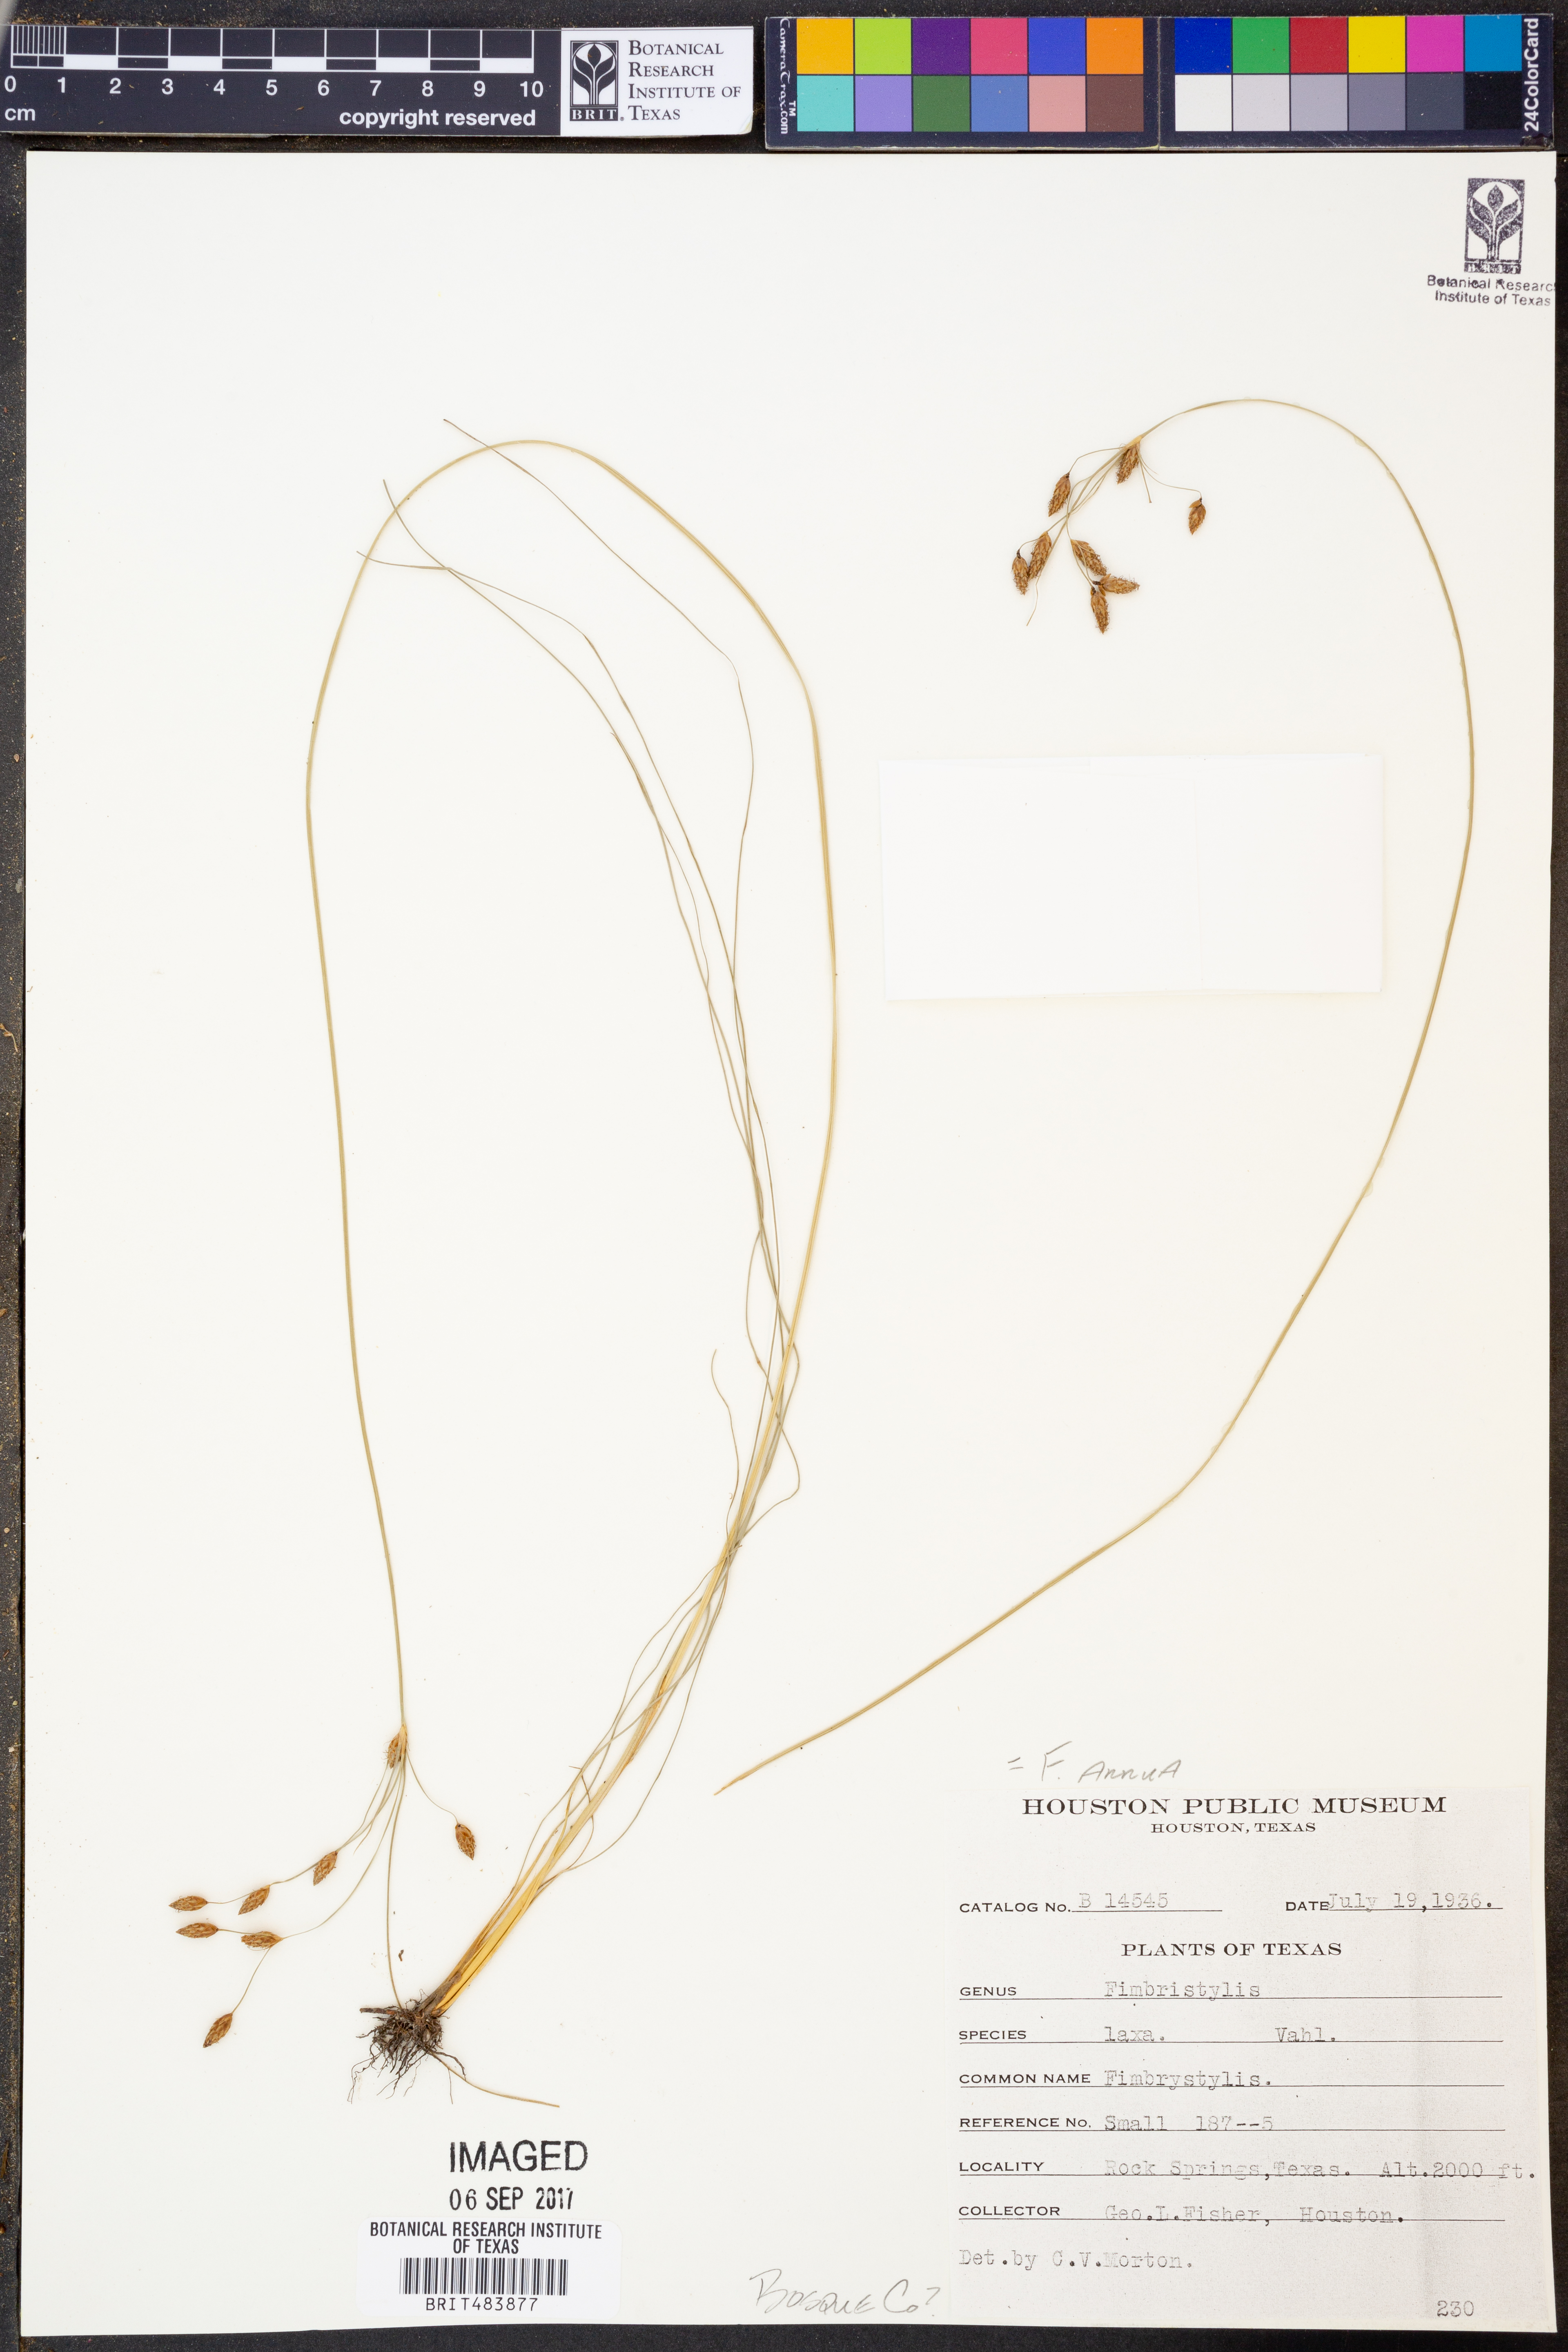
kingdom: Plantae
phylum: Tracheophyta
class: Liliopsida
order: Poales
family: Cyperaceae
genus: Fimbristylis
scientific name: Fimbristylis
